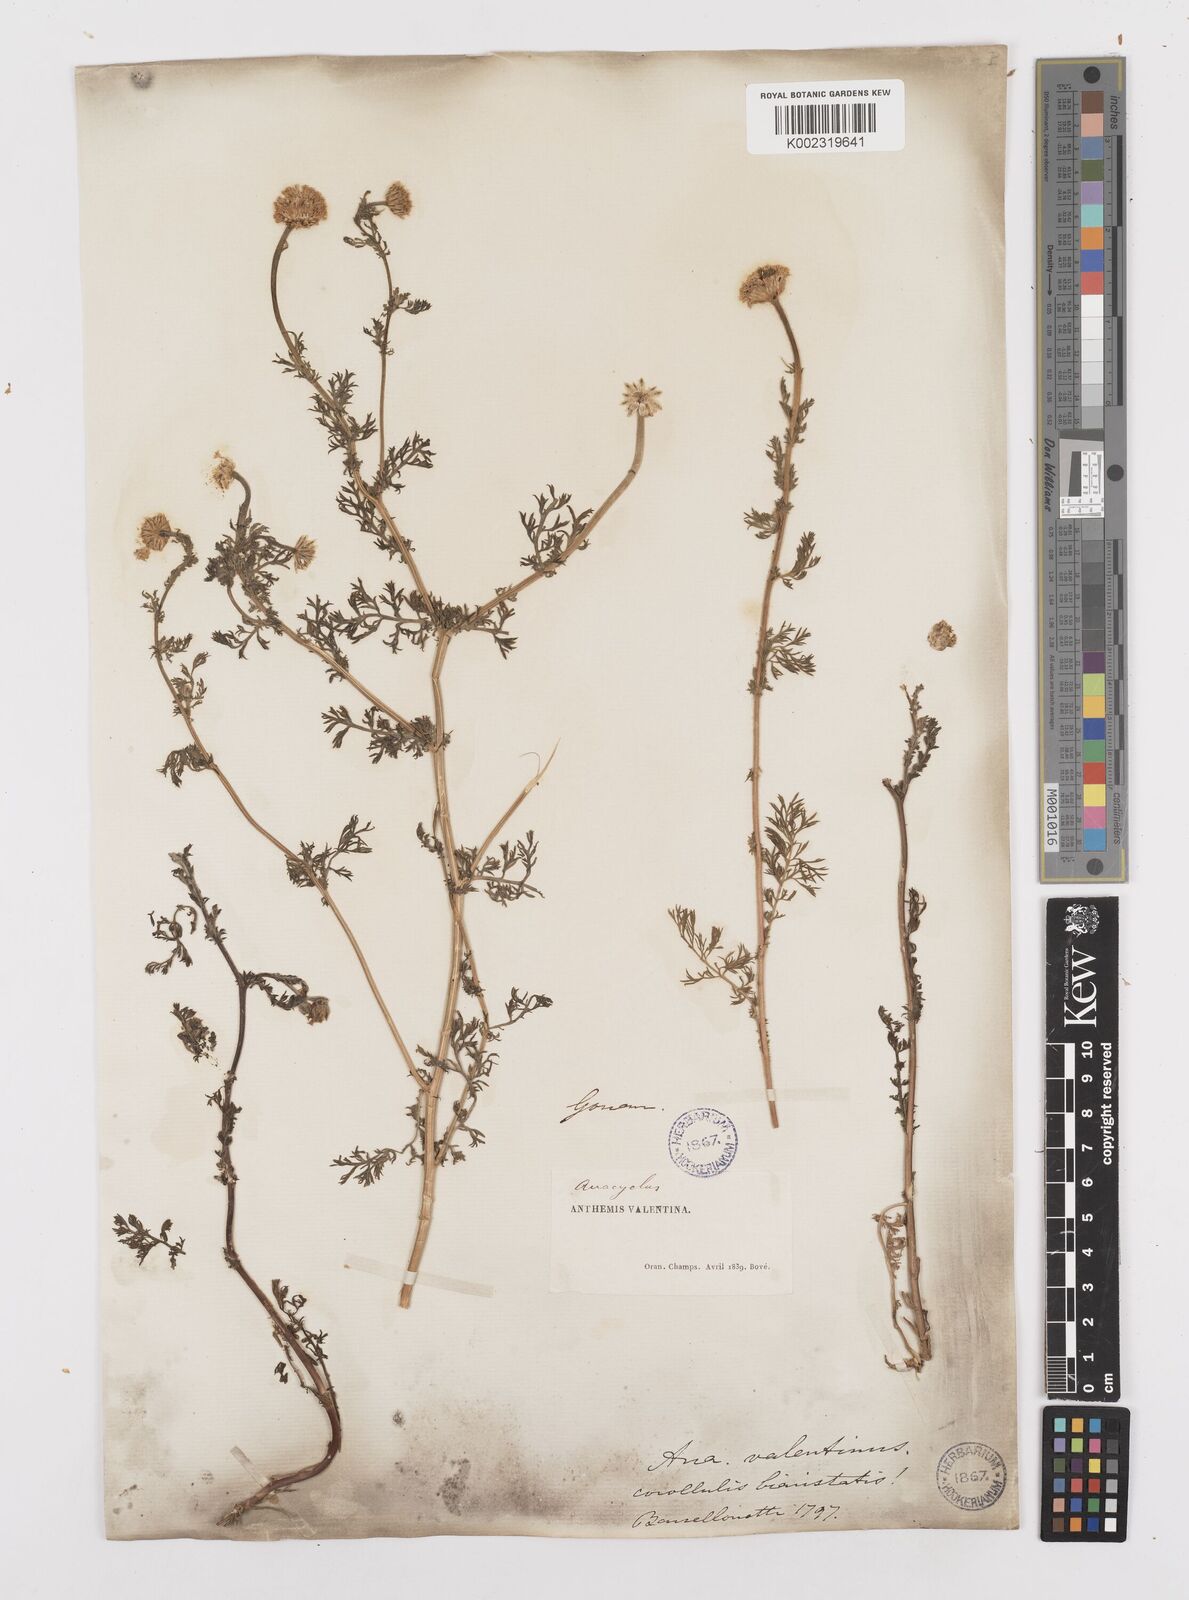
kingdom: Plantae
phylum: Tracheophyta
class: Magnoliopsida
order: Asterales
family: Asteraceae
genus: Anacyclus
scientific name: Anacyclus valentinus
